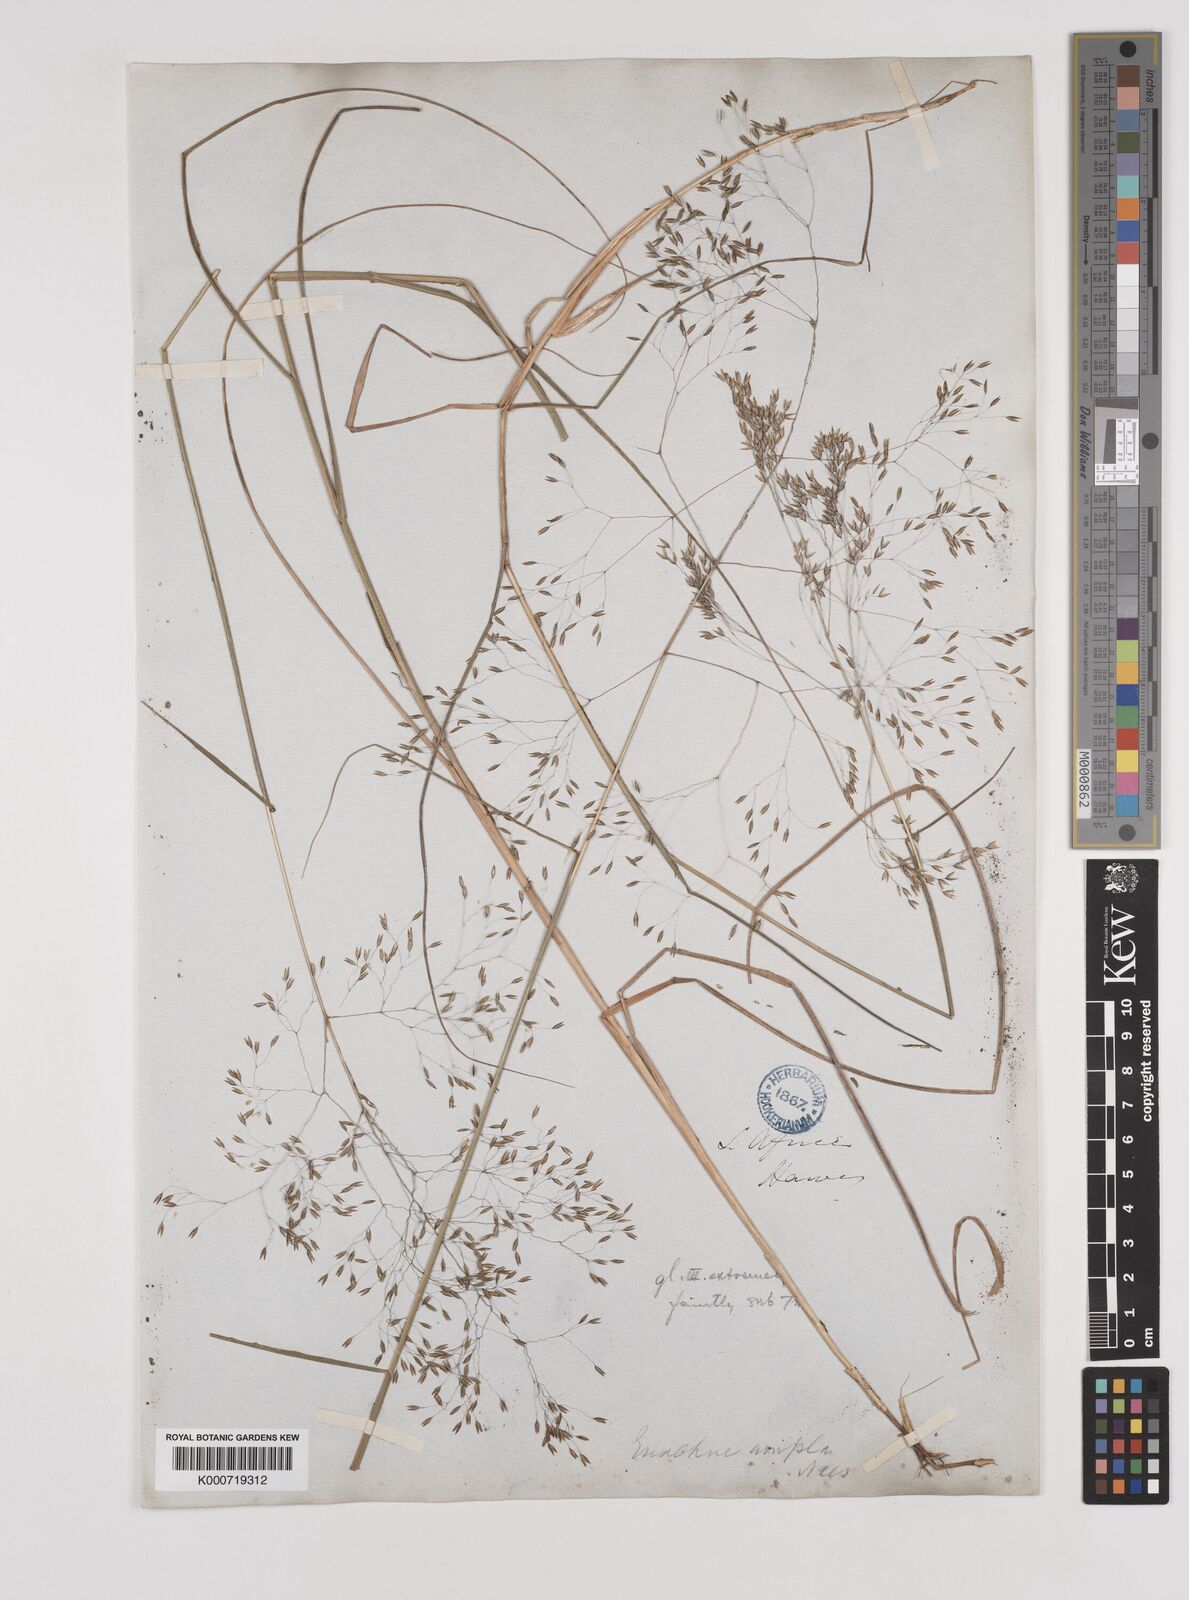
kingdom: Plantae
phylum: Tracheophyta
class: Liliopsida
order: Poales
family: Poaceae
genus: Pentameris
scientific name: Pentameris ampla
